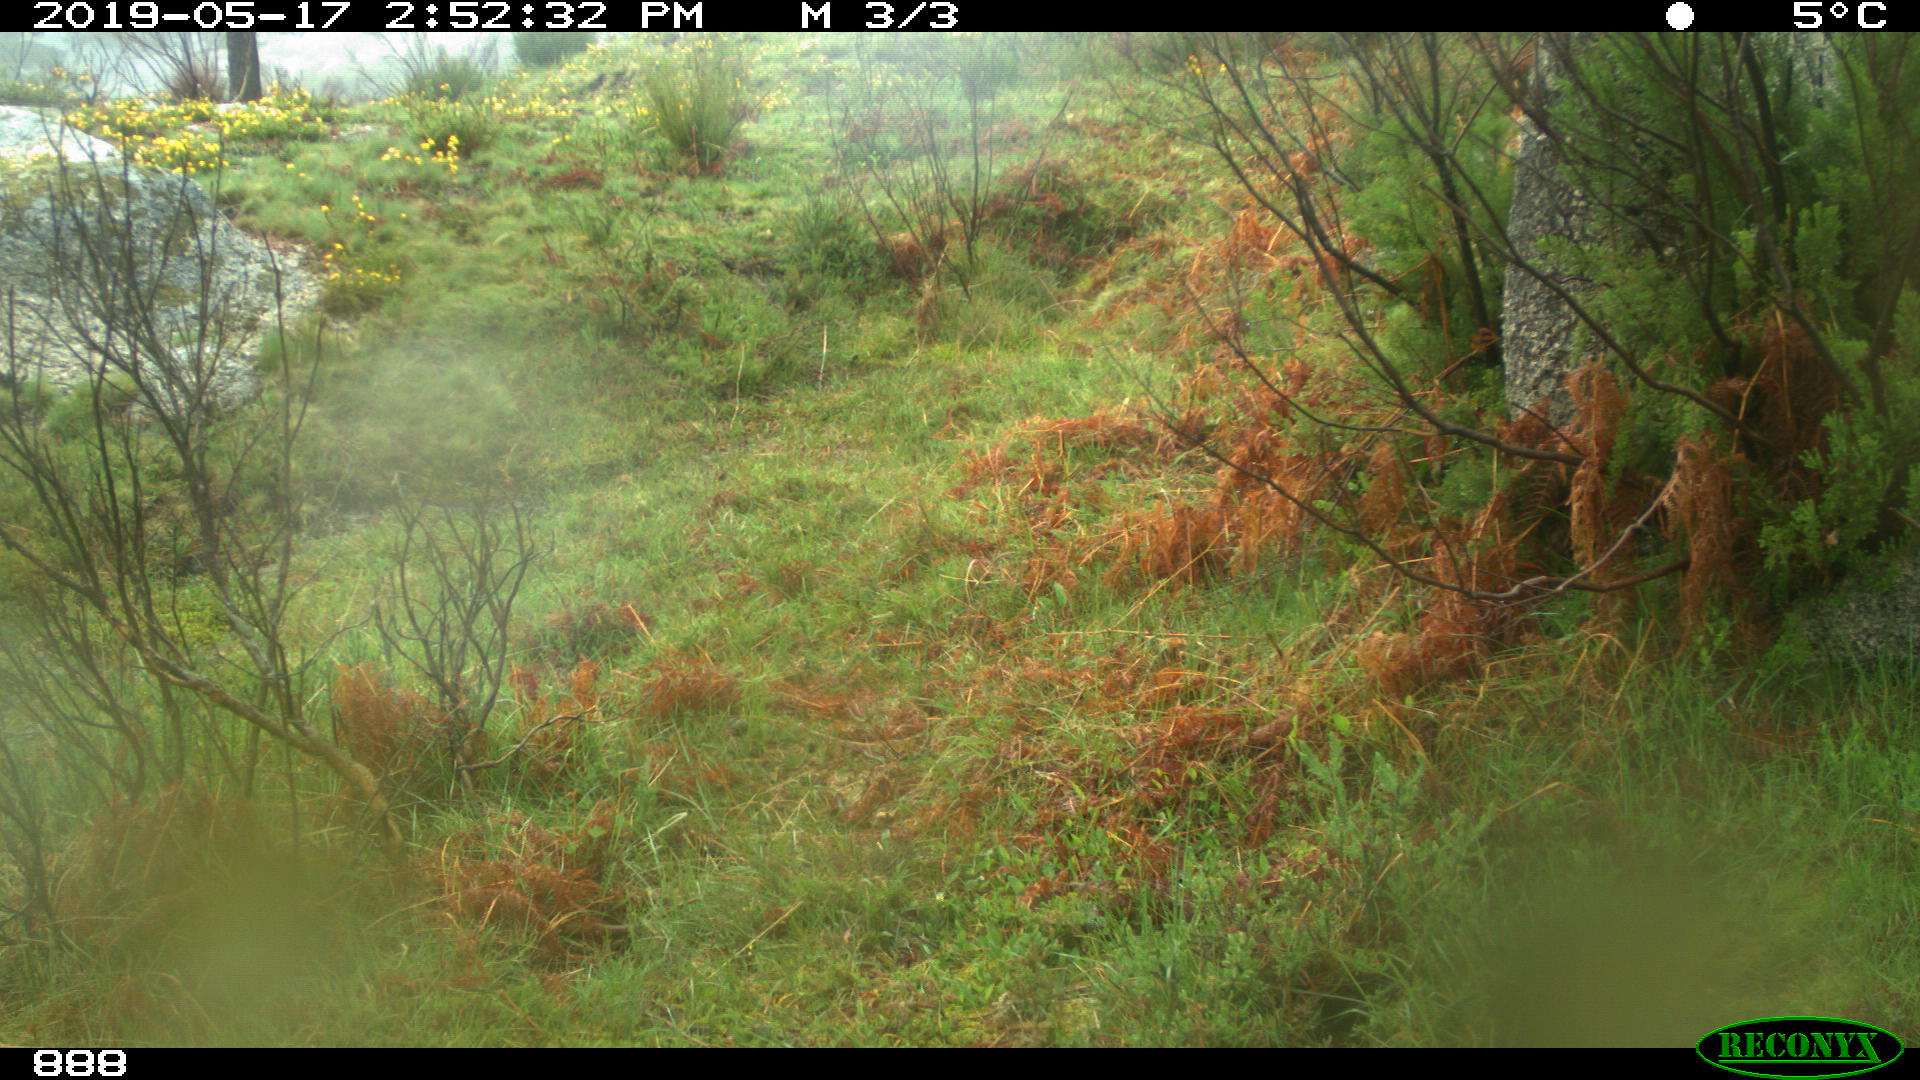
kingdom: Animalia
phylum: Chordata
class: Mammalia
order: Artiodactyla
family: Cervidae
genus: Capreolus
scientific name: Capreolus capreolus
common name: Western roe deer
